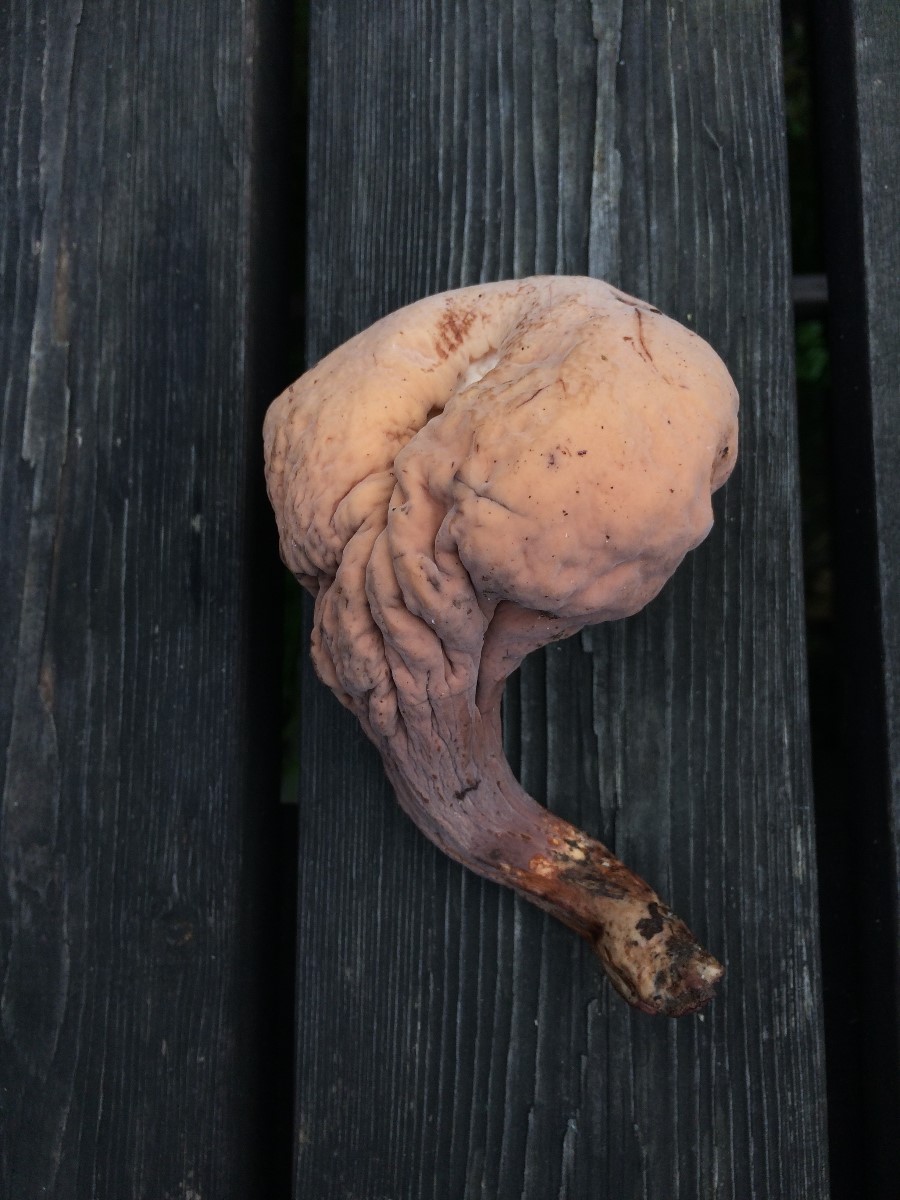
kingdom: Fungi
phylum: Basidiomycota
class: Agaricomycetes
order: Gomphales
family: Clavariadelphaceae
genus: Clavariadelphus
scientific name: Clavariadelphus pistillaris
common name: herkules-kæmpekølle
